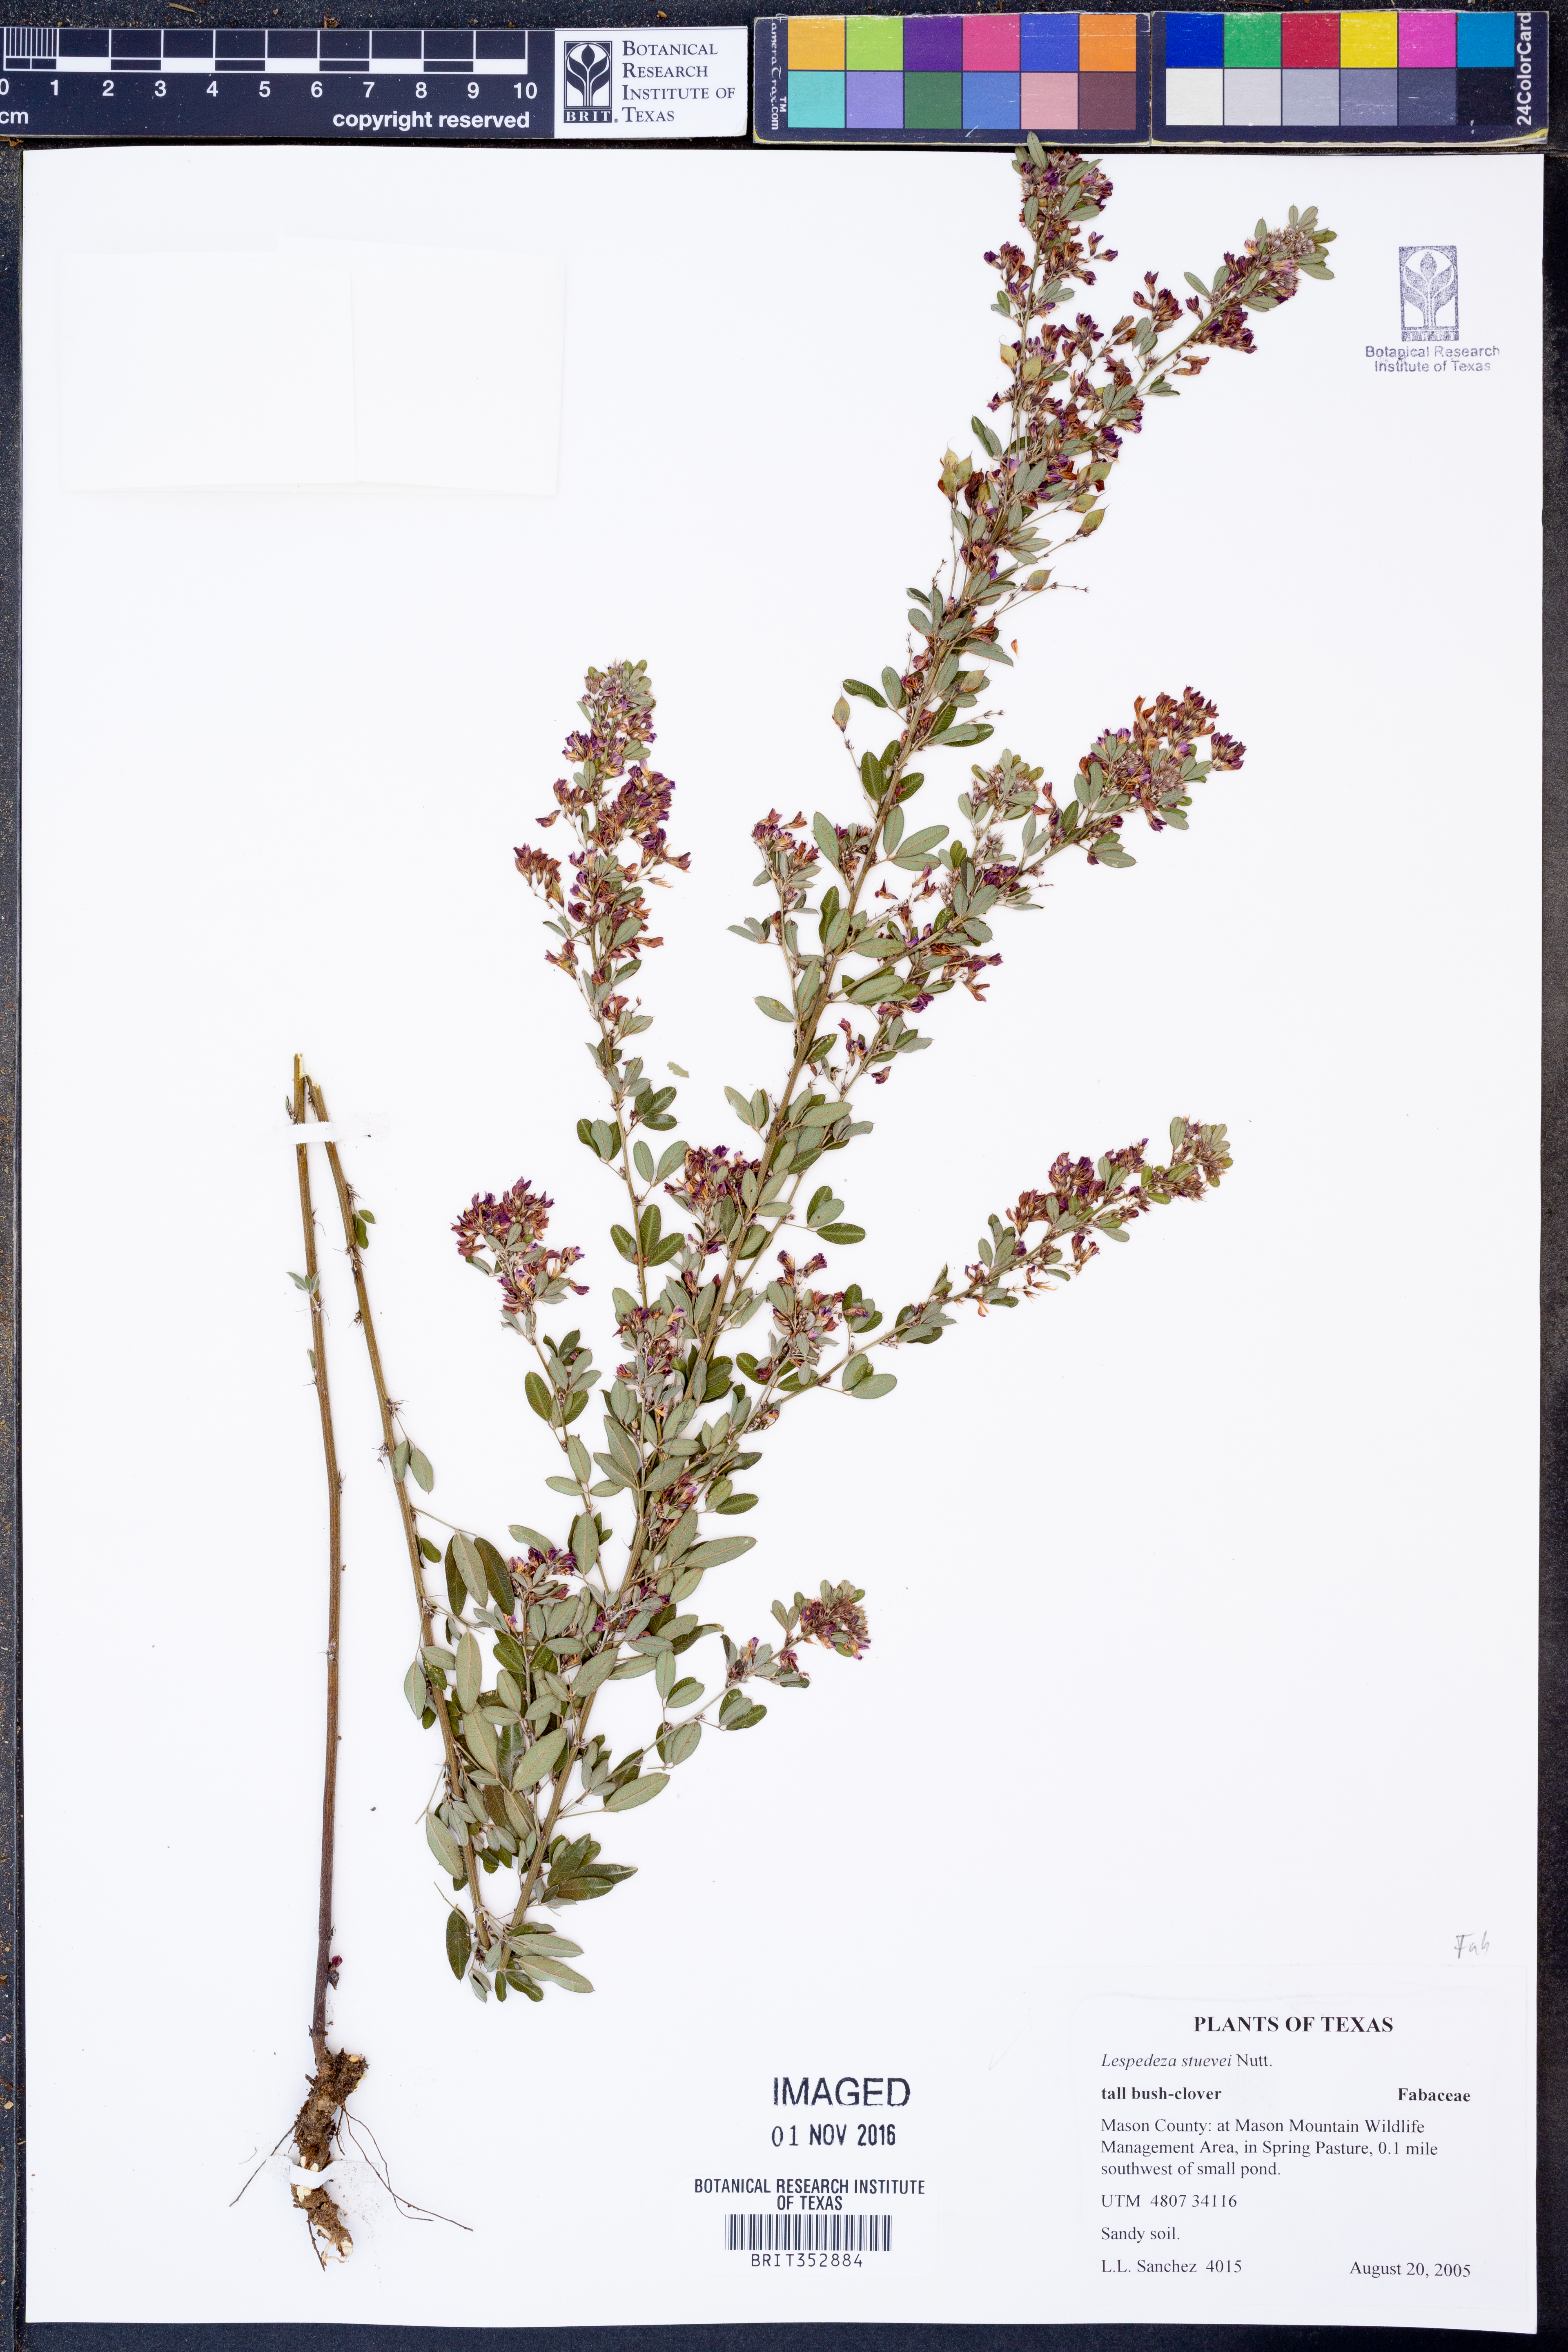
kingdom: Plantae
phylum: Tracheophyta
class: Magnoliopsida
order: Fabales
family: Fabaceae
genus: Lespedeza
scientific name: Lespedeza stuevei
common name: Tall bush-clover
